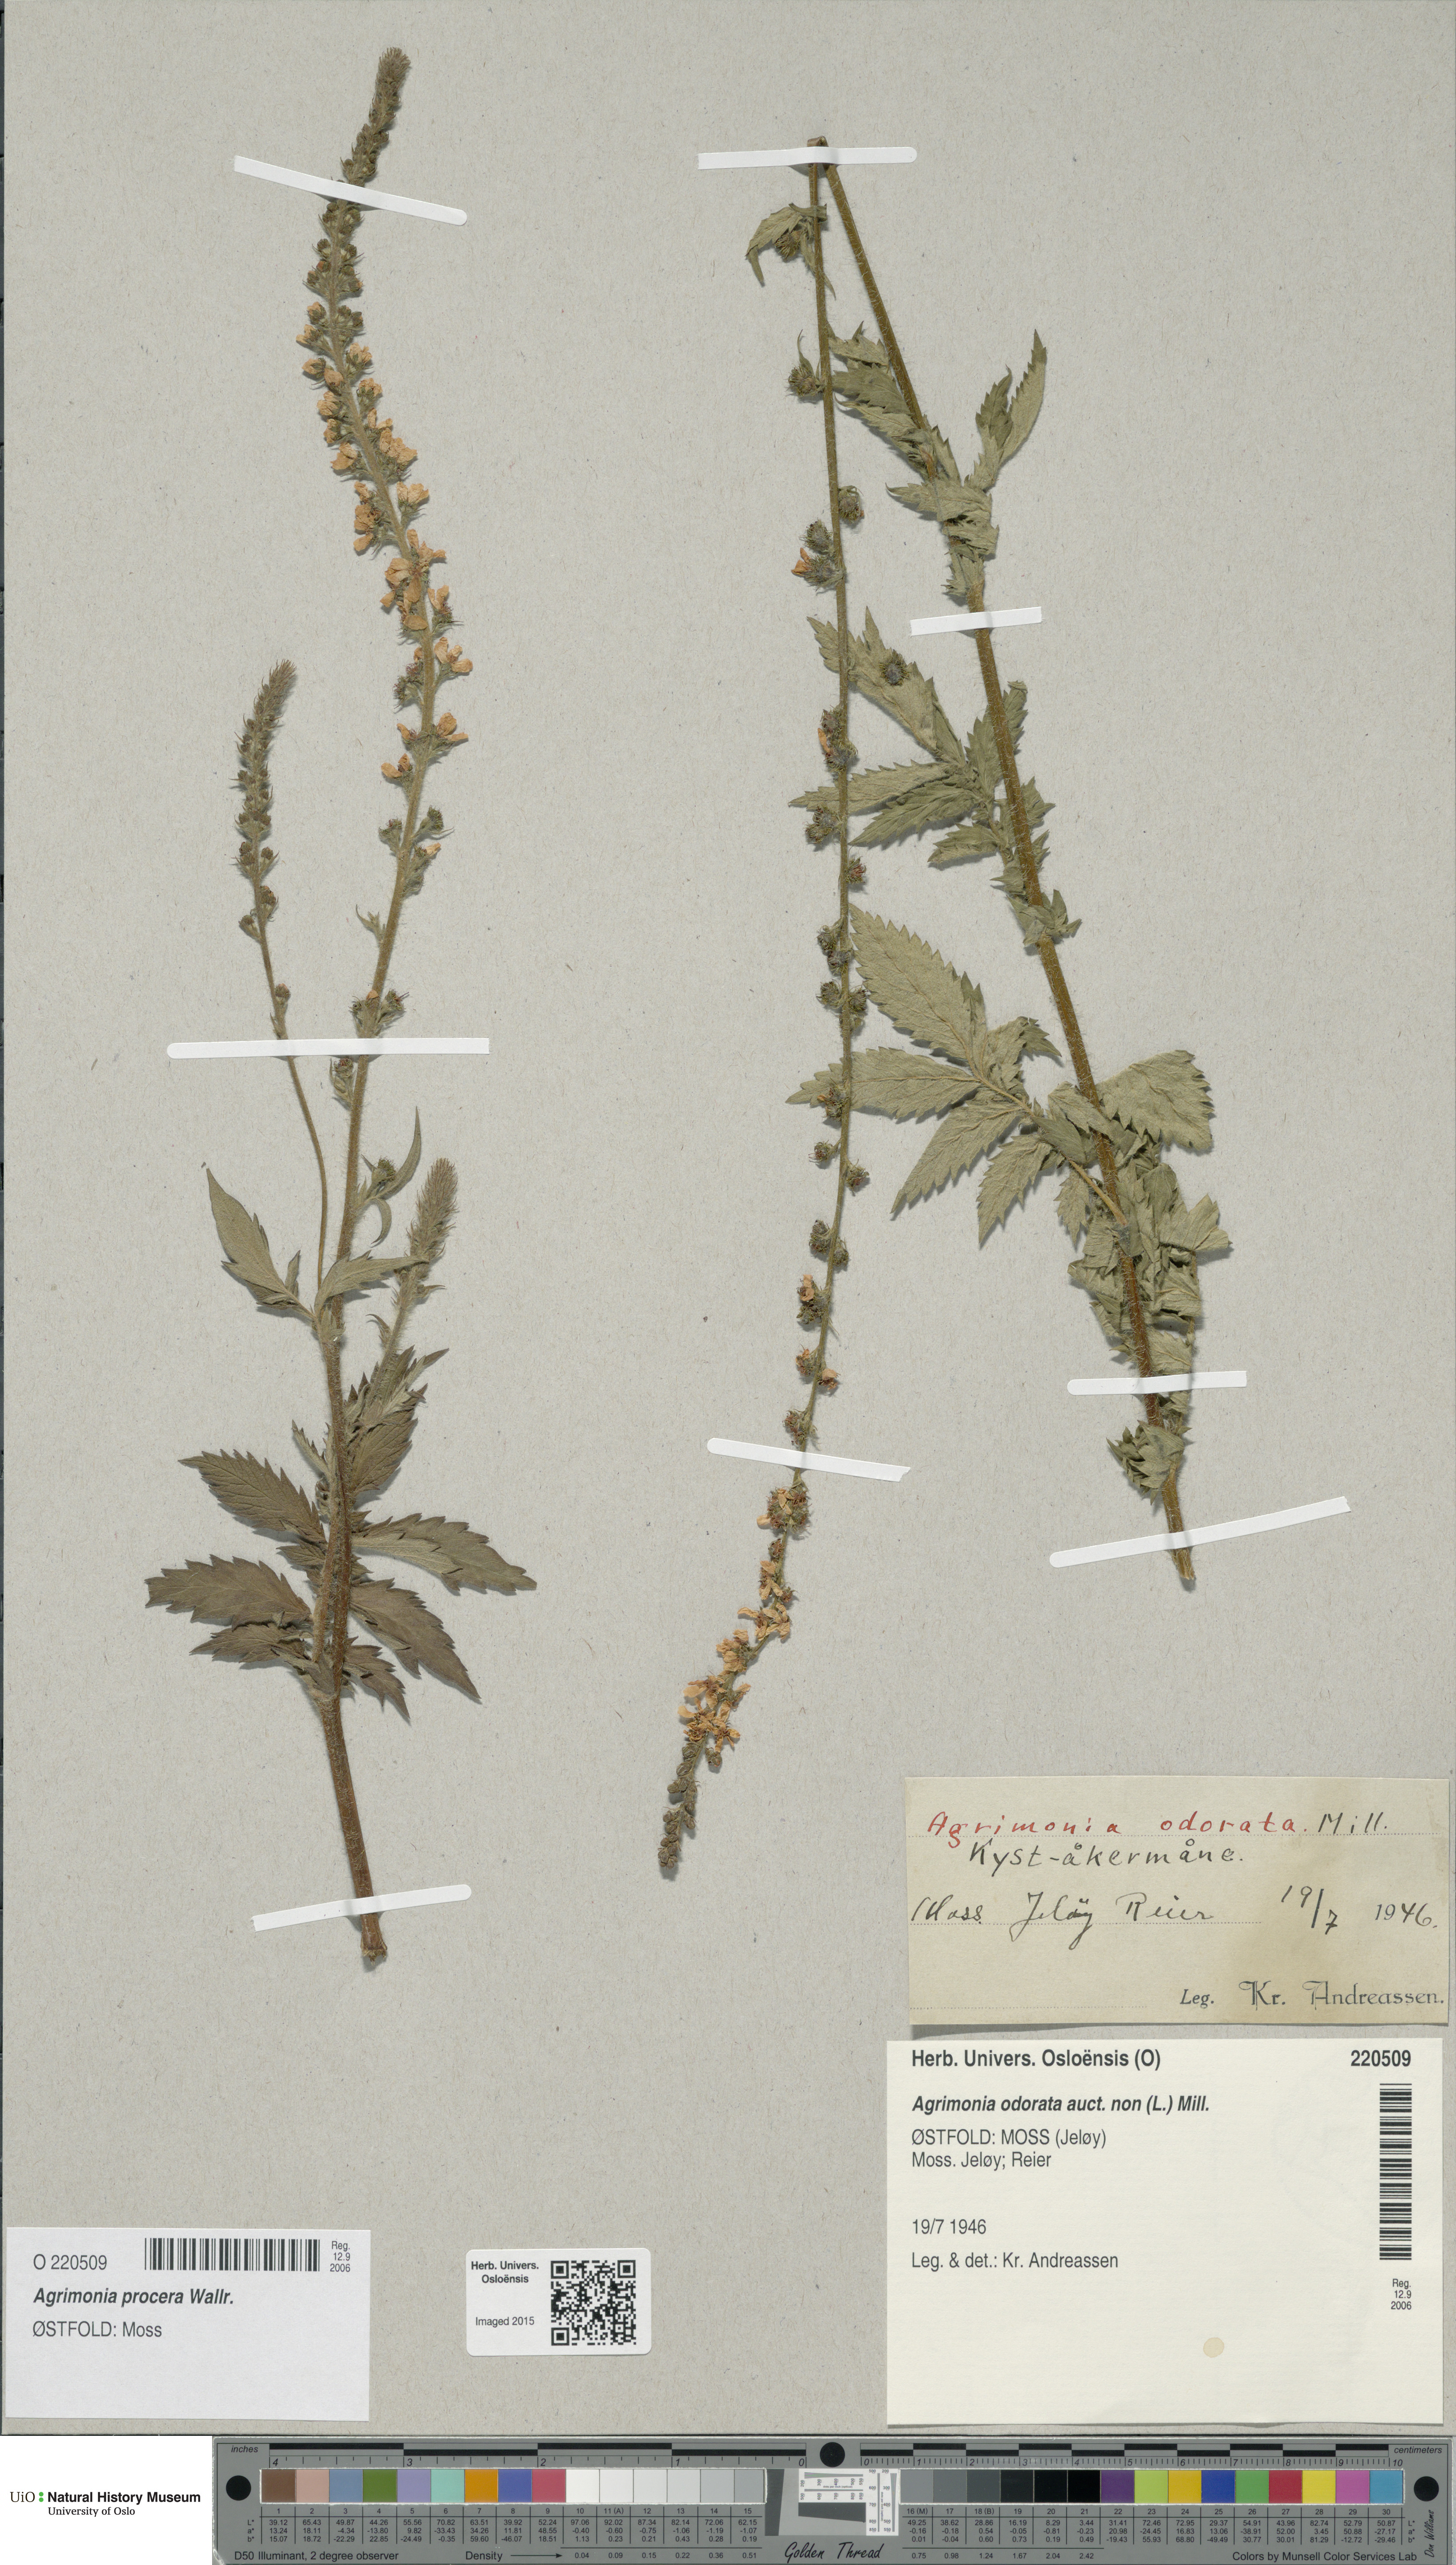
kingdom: Plantae
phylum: Tracheophyta
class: Magnoliopsida
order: Rosales
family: Rosaceae
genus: Agrimonia
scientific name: Agrimonia procera
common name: Fragrant agrimony
